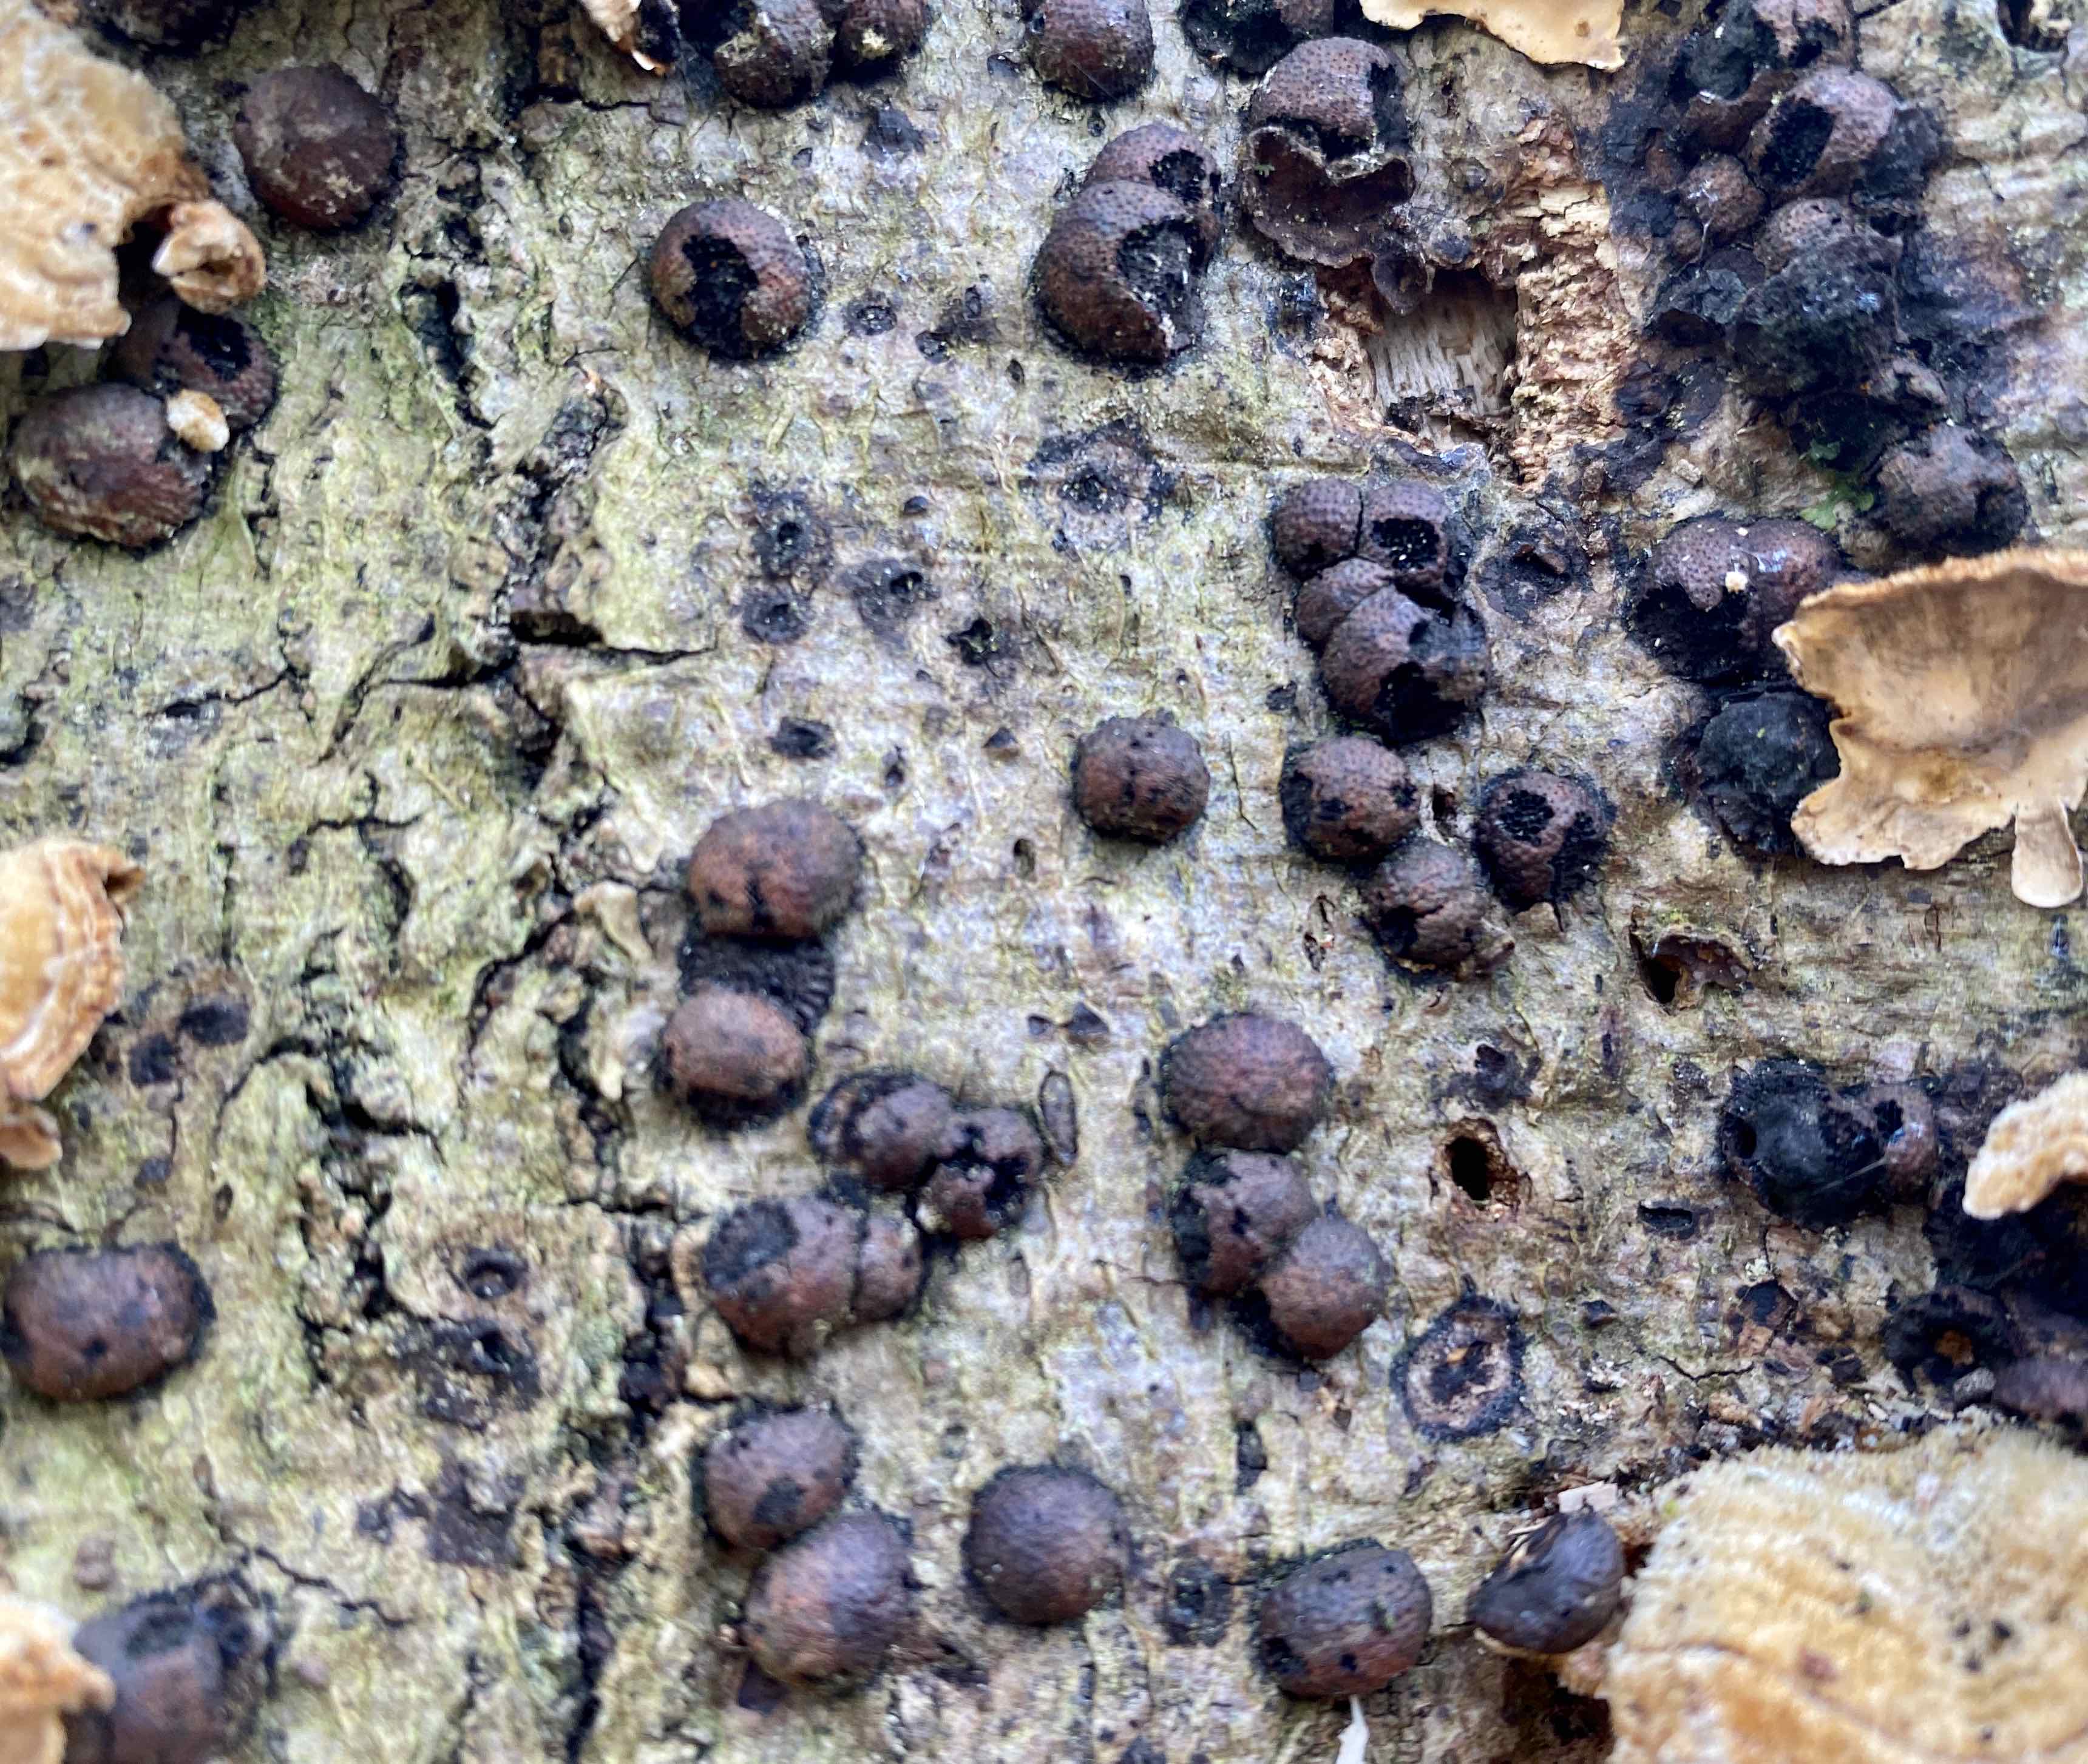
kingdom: Fungi
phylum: Ascomycota
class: Sordariomycetes
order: Xylariales
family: Hypoxylaceae
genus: Hypoxylon
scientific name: Hypoxylon fragiforme
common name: kuljordbær
